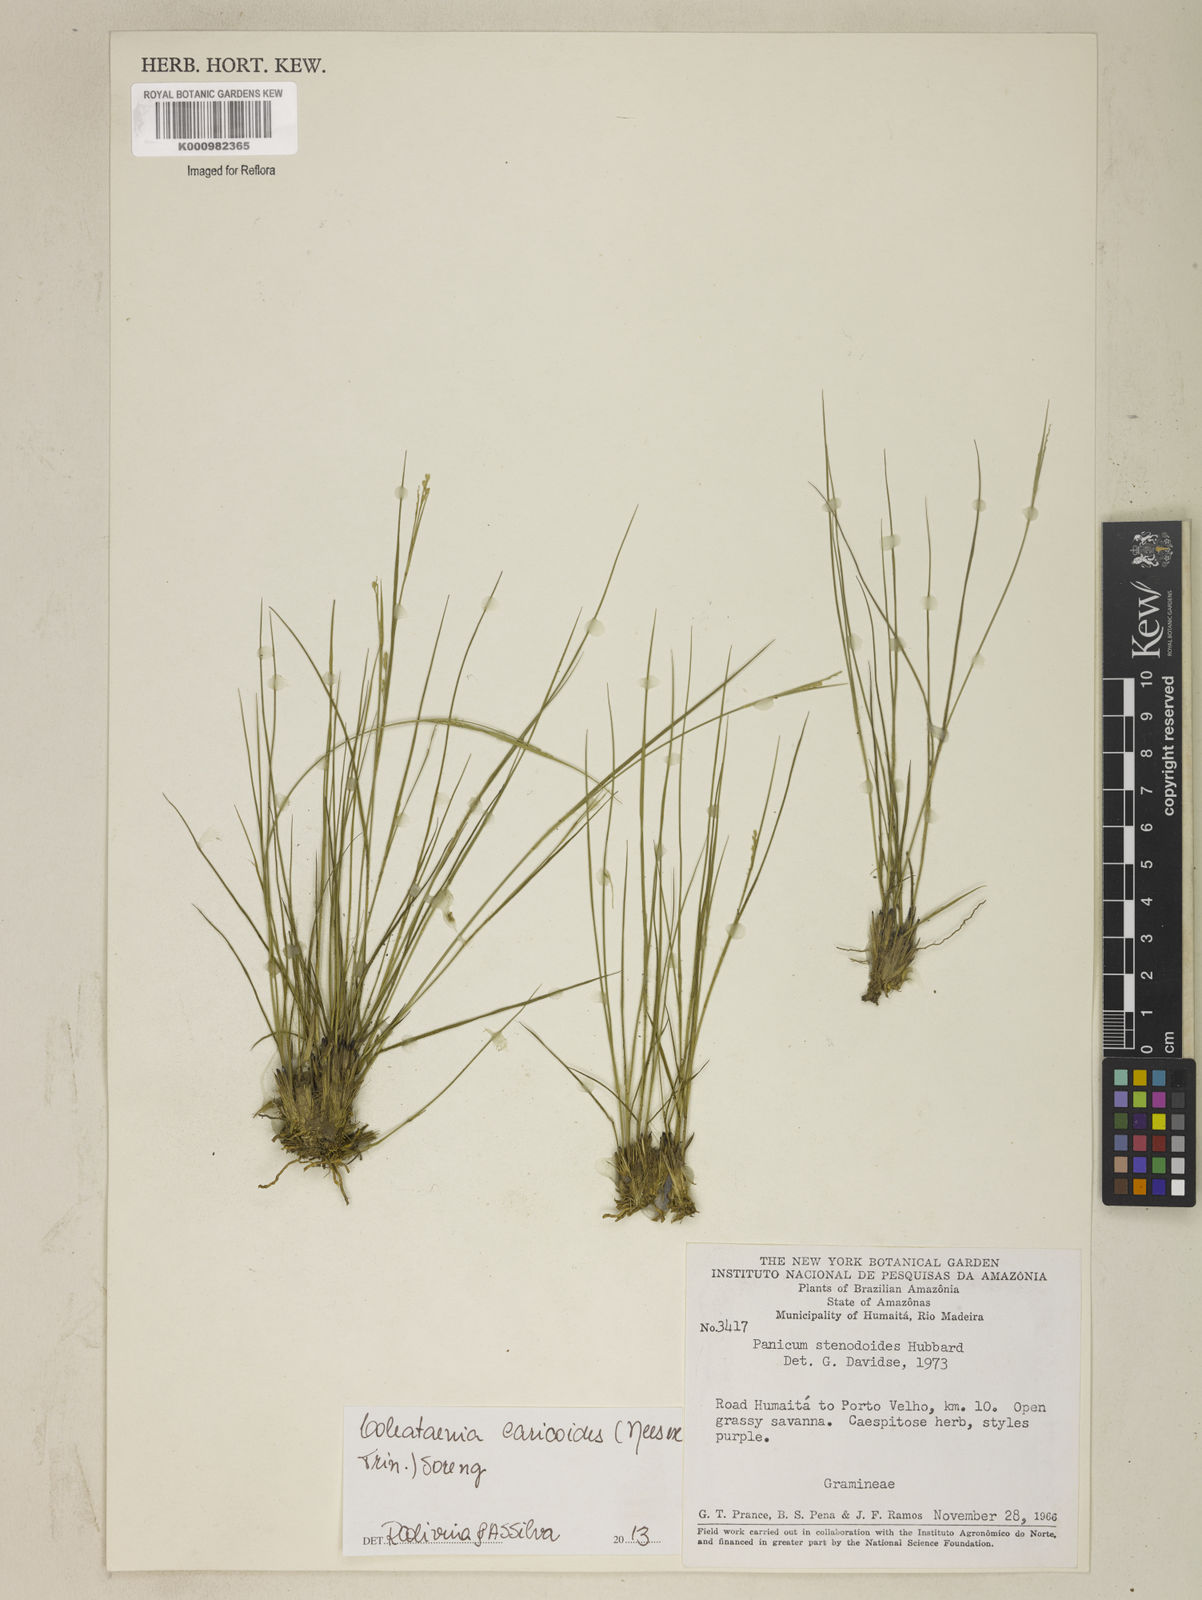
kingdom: Plantae
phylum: Tracheophyta
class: Liliopsida
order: Poales
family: Poaceae
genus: Coleataenia
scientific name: Coleataenia caricoides
